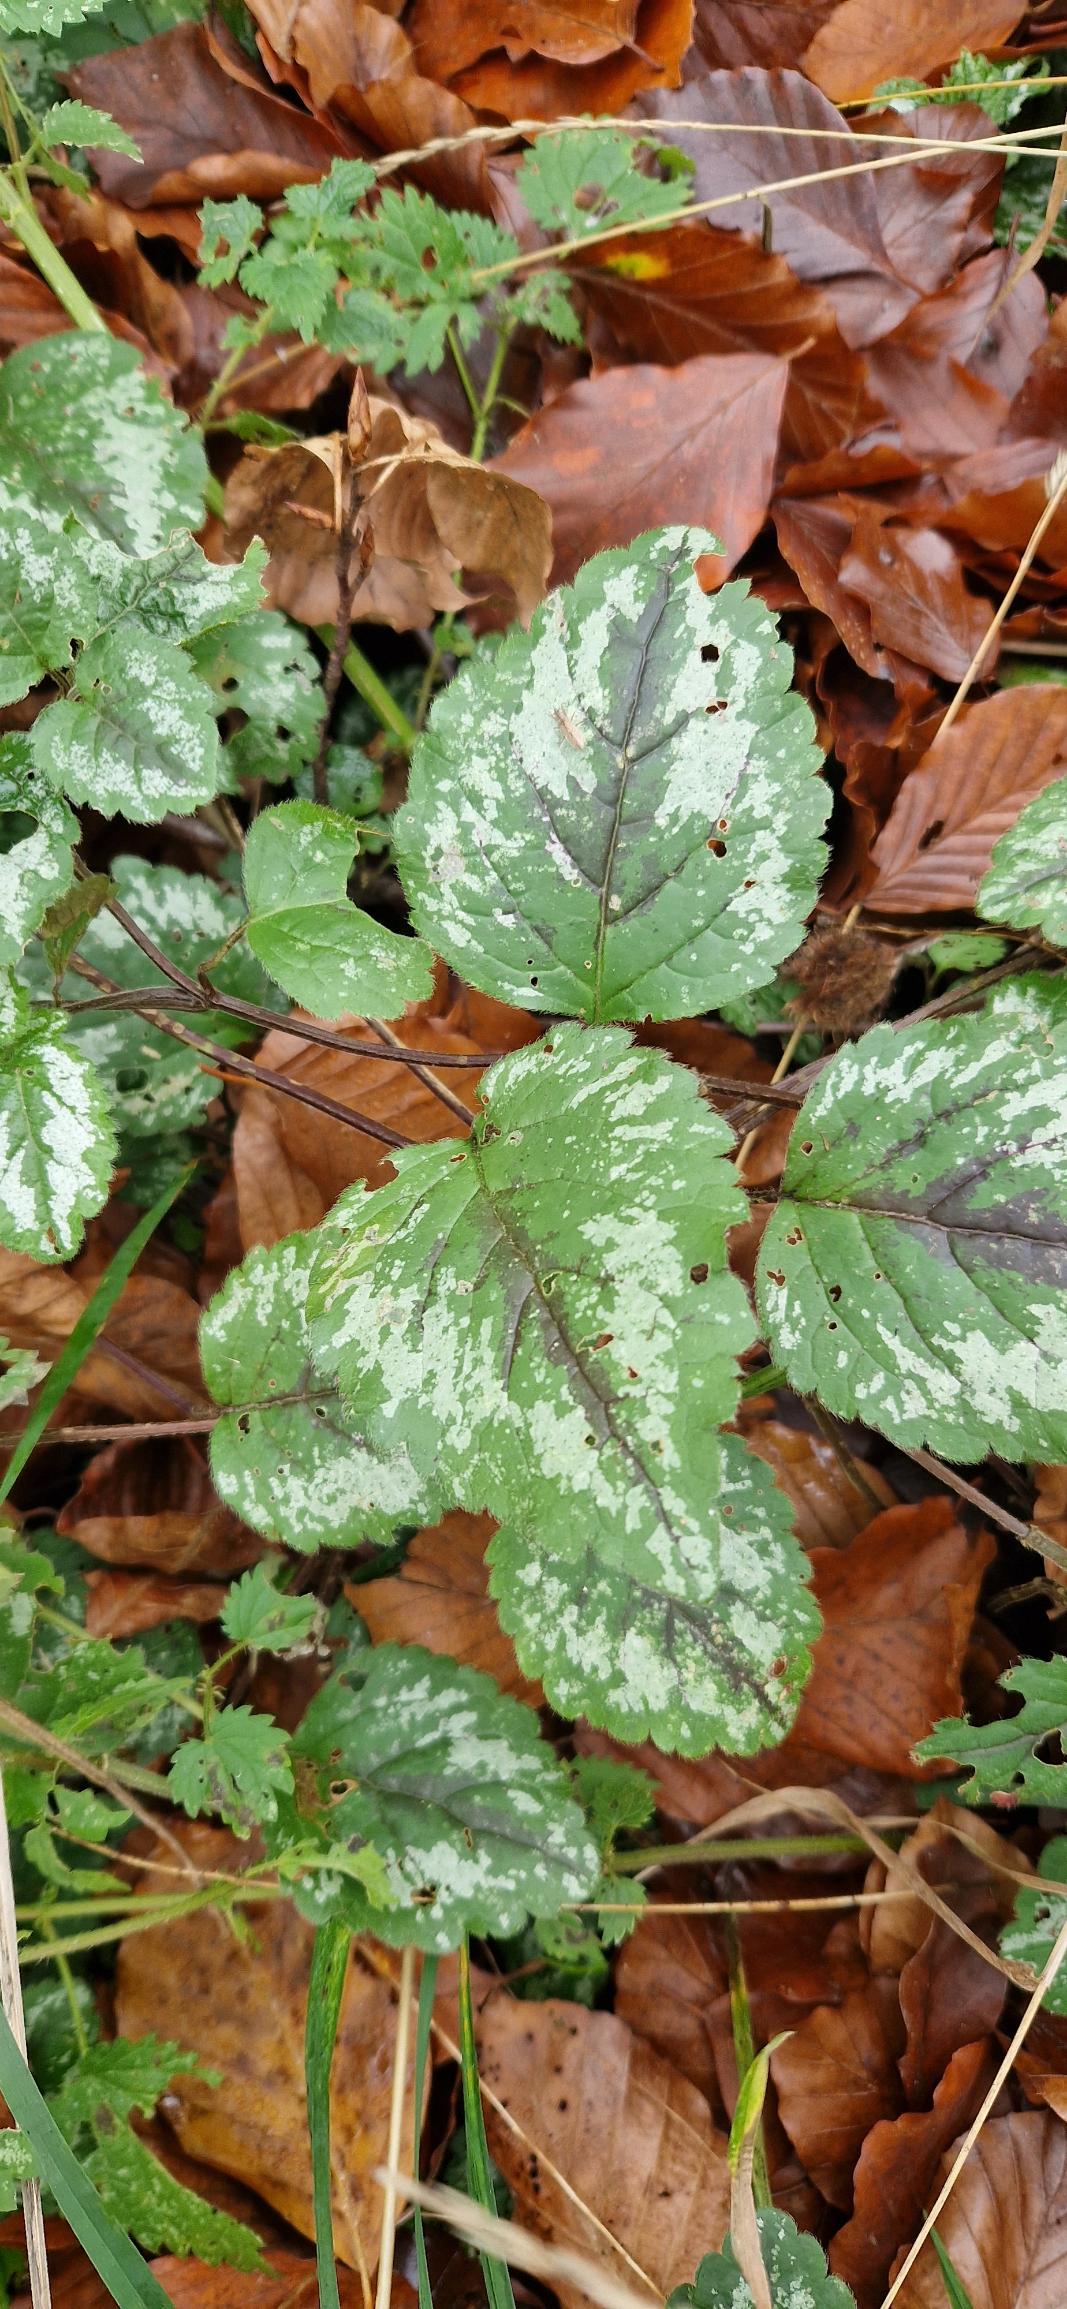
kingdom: Plantae
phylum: Tracheophyta
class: Magnoliopsida
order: Lamiales
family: Lamiaceae
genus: Lamium
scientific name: Lamium galeobdolon
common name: Have-guldnælde
